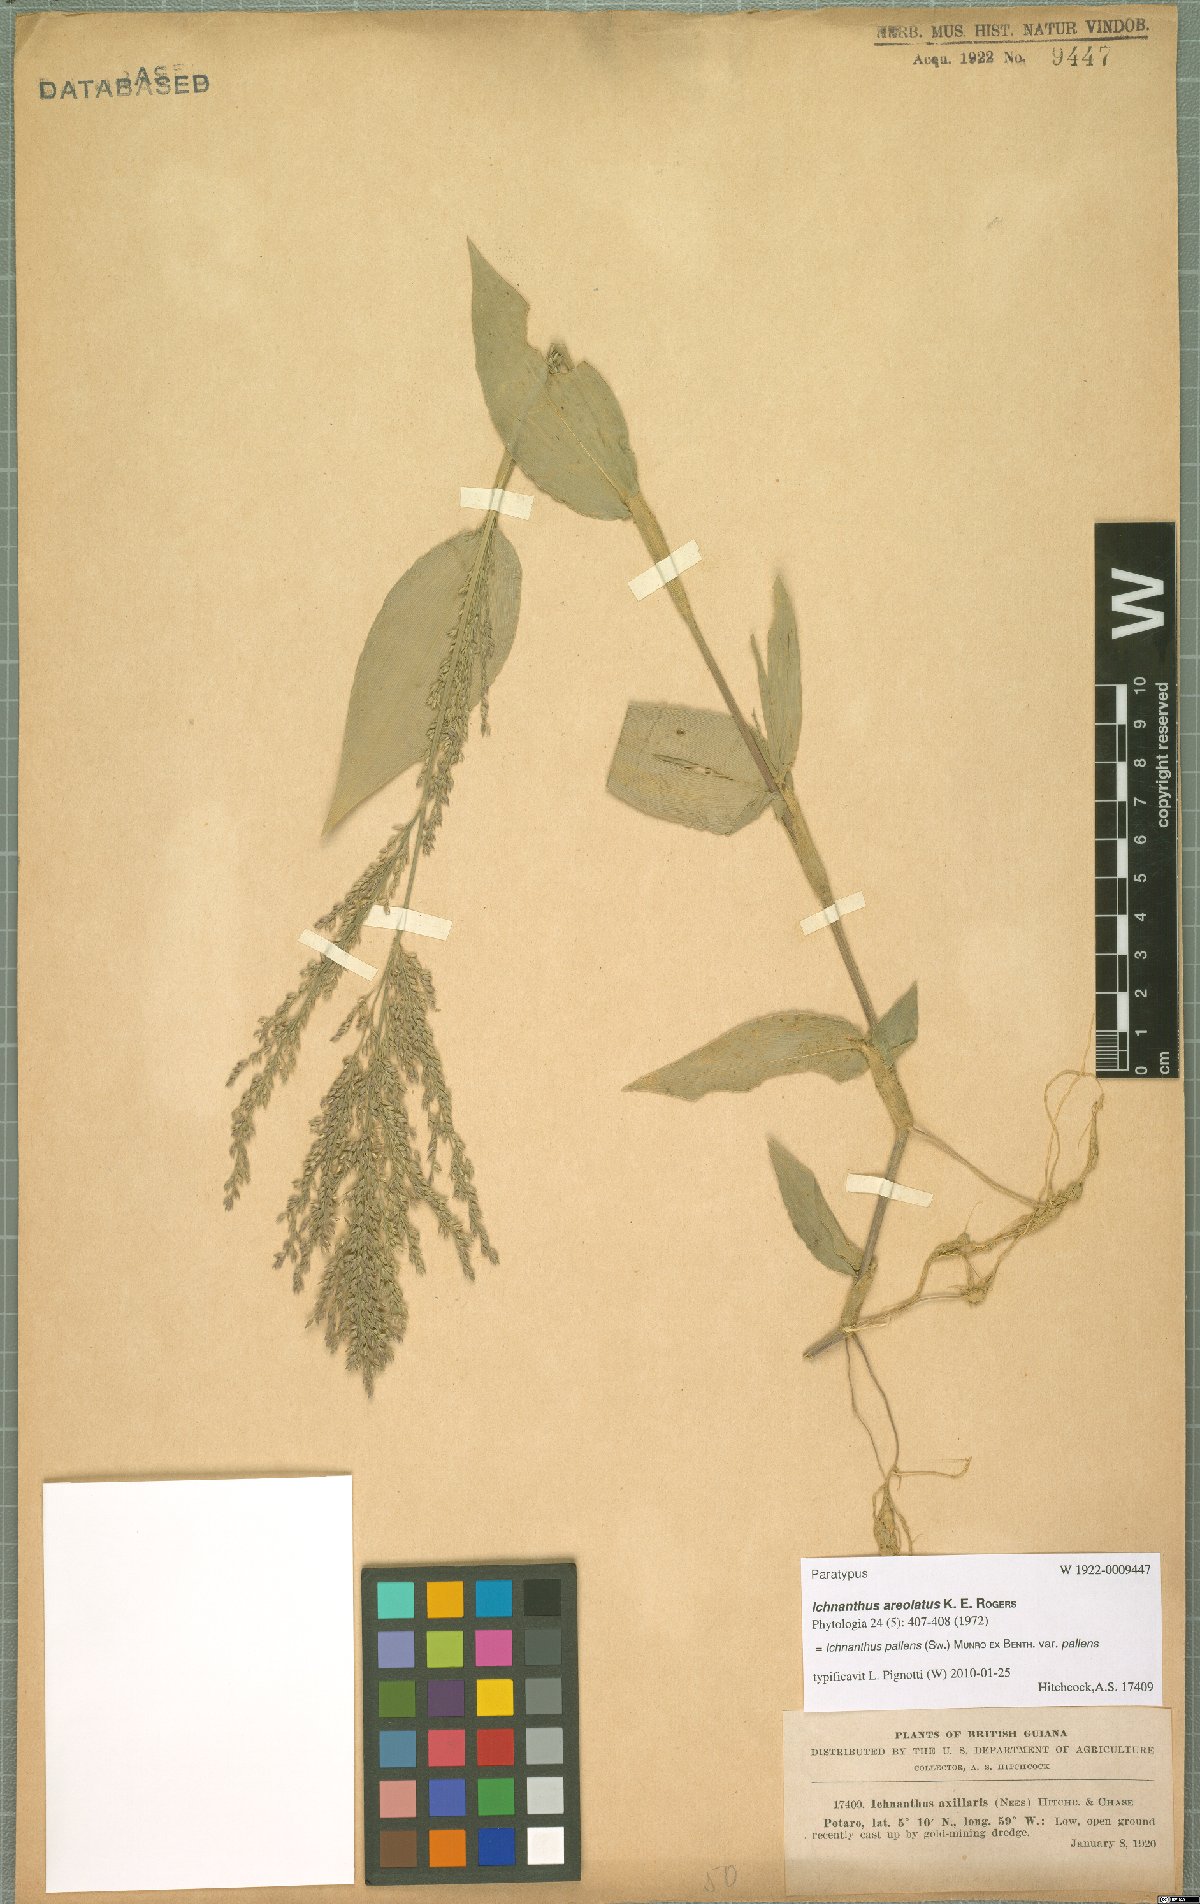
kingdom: Plantae
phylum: Tracheophyta
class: Liliopsida
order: Poales
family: Poaceae
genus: Ichnanthus
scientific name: Ichnanthus pallens
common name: Water grass
